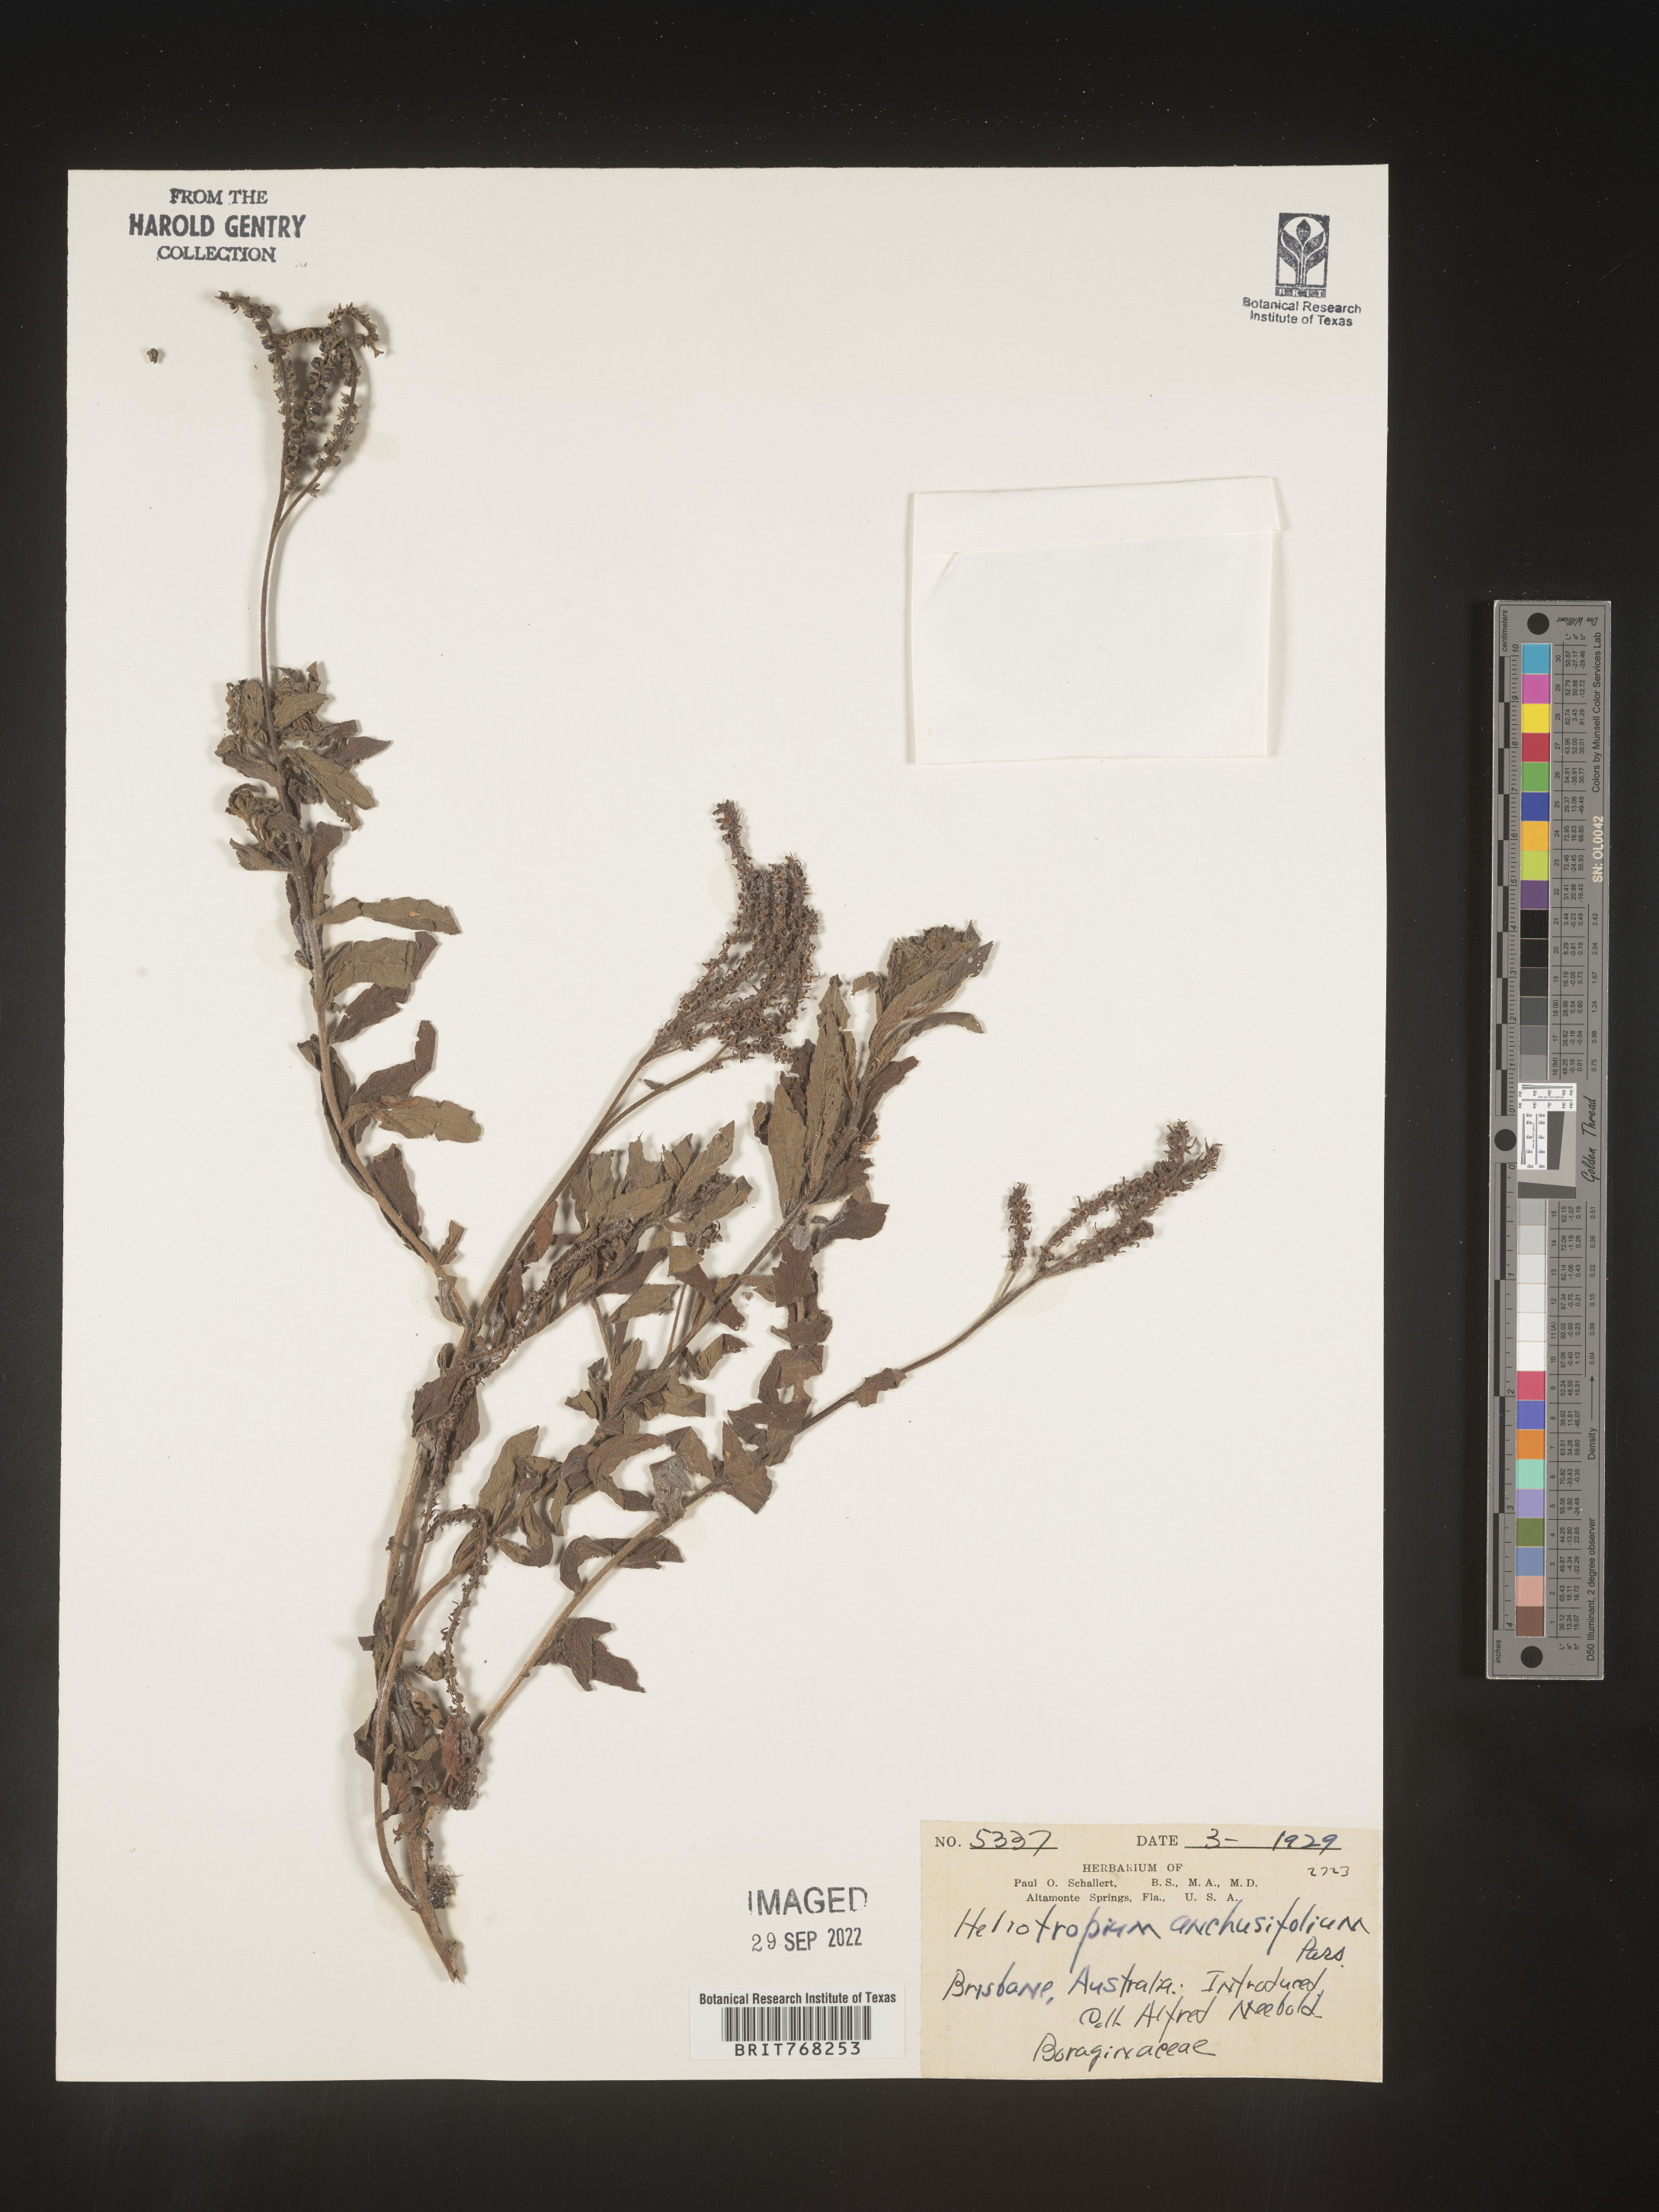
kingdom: Plantae
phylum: Tracheophyta
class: Magnoliopsida
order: Boraginales
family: Heliotropiaceae
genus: Heliotropium
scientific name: Heliotropium
